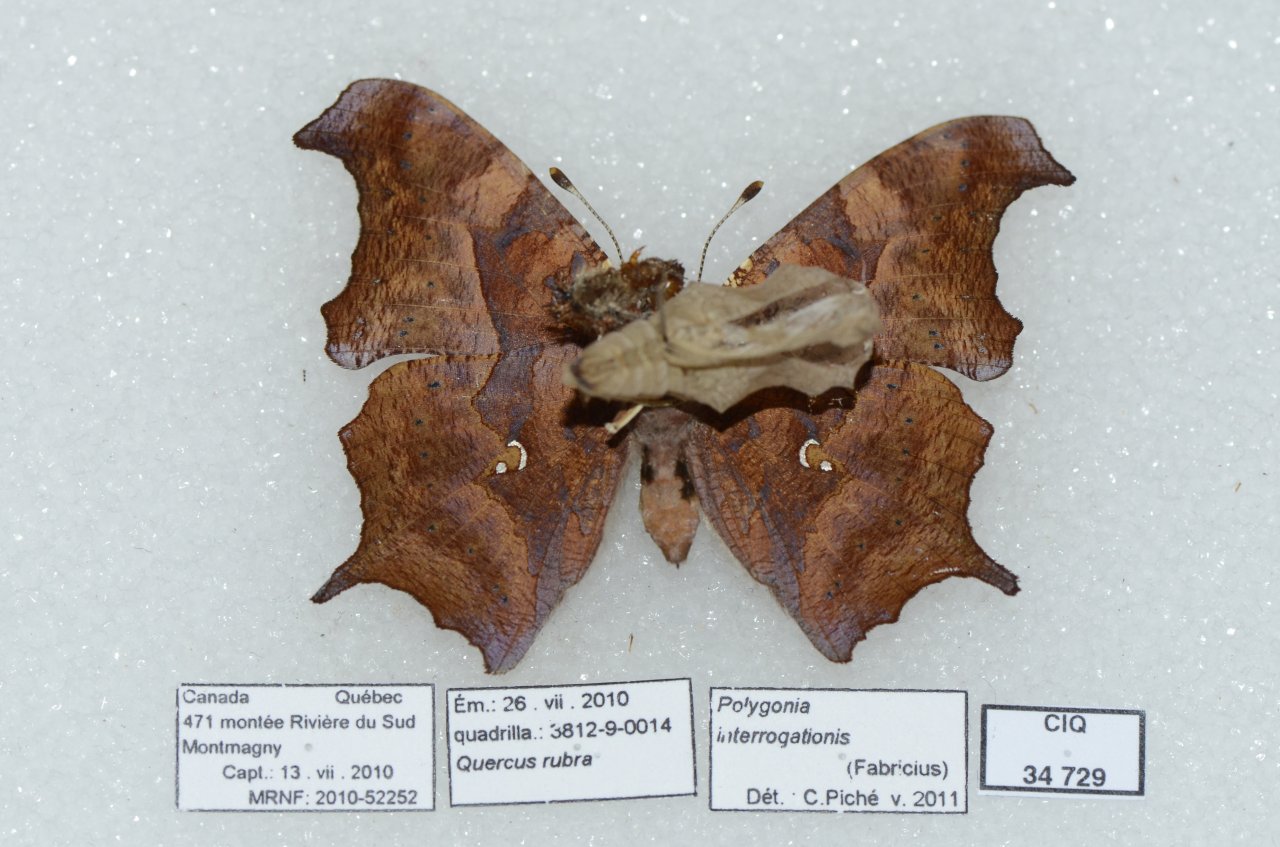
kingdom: Animalia
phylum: Arthropoda
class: Insecta
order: Lepidoptera
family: Nymphalidae
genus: Polygonia
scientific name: Polygonia interrogationis
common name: Question Mark
